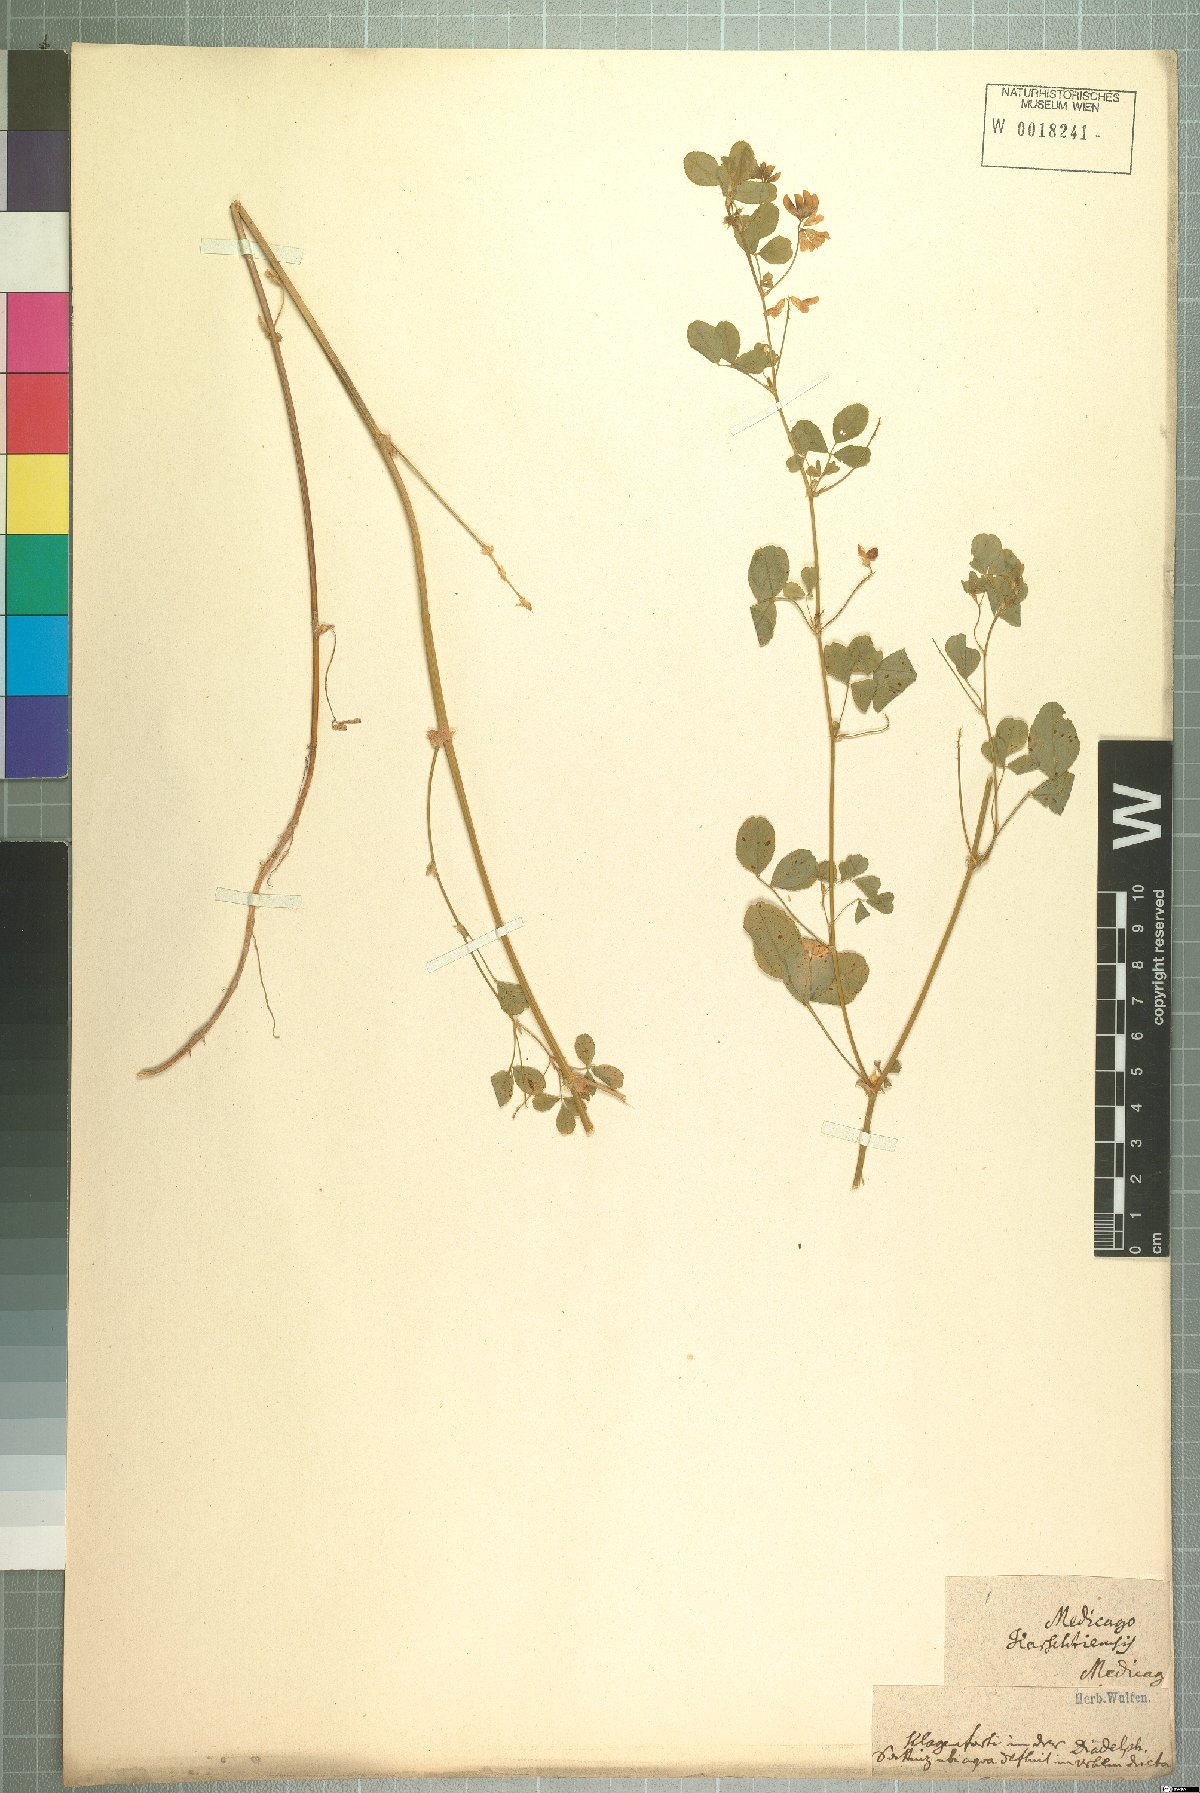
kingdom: Plantae
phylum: Tracheophyta
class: Magnoliopsida
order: Fabales
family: Fabaceae
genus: Medicago
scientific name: Medicago carstiensis
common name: Creeping-rooted medic
